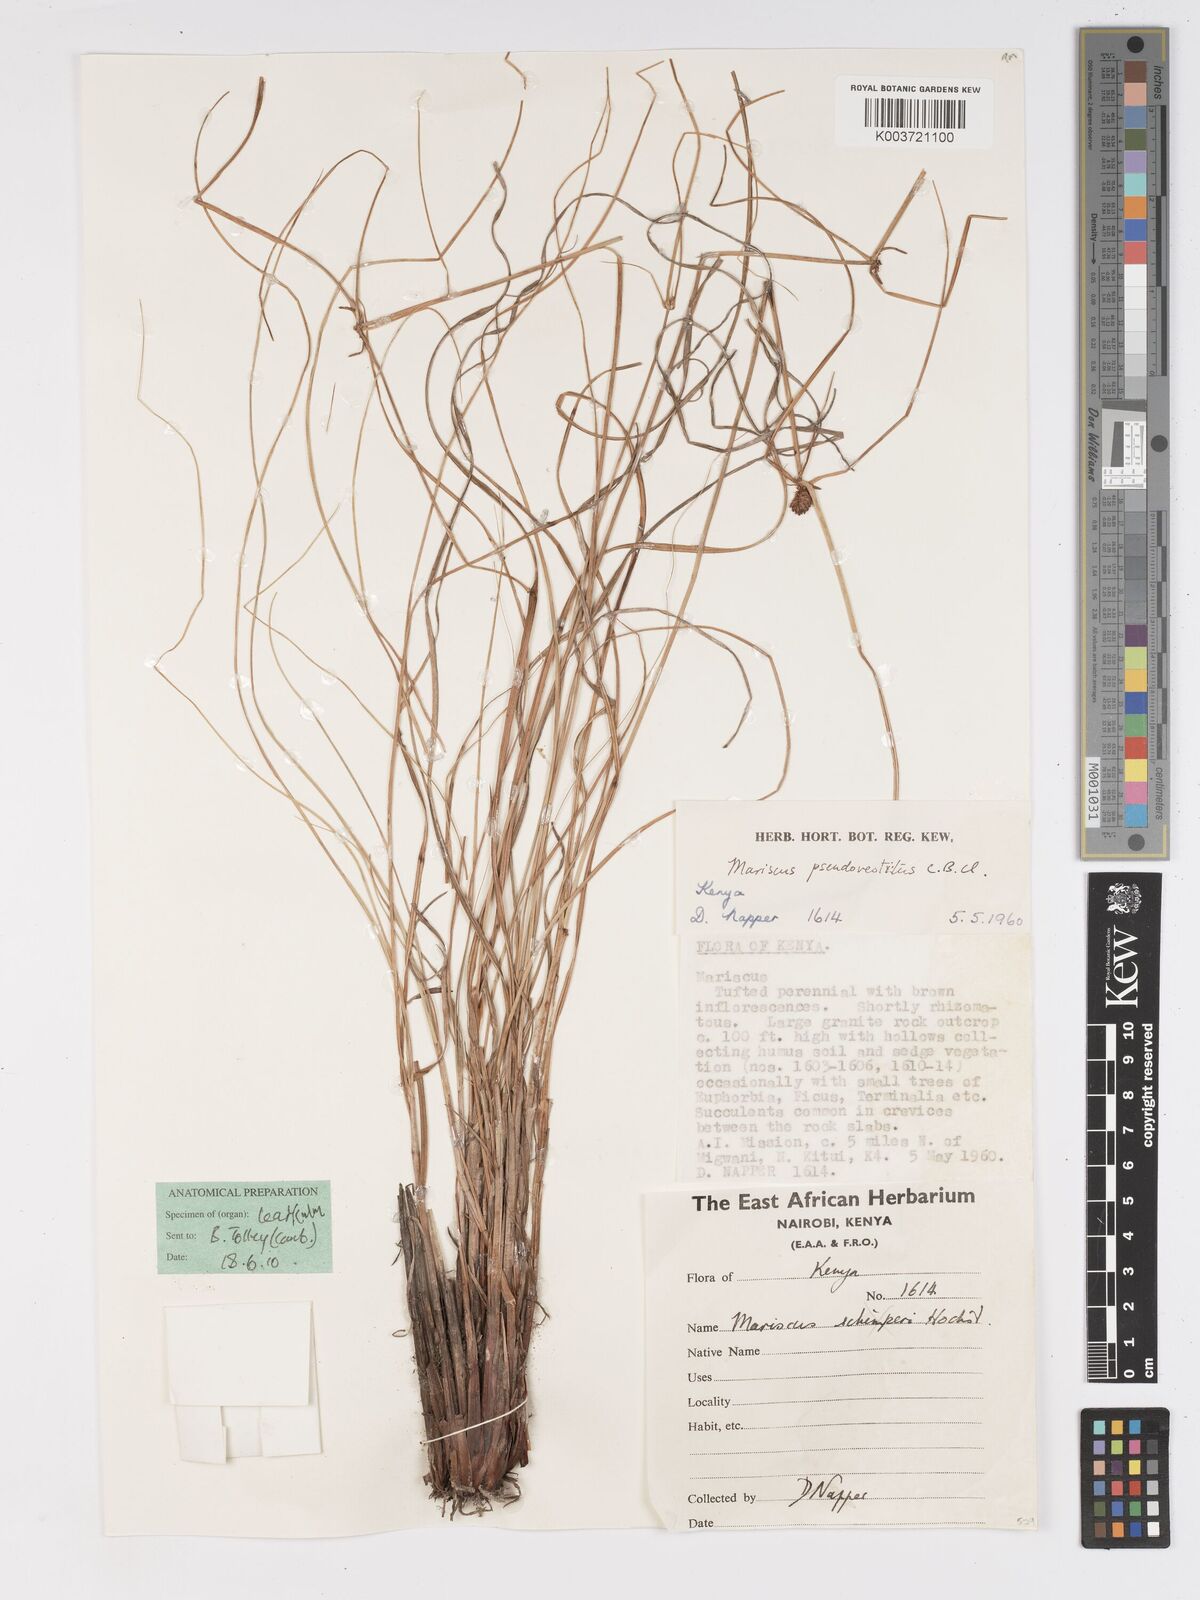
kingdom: Plantae
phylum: Tracheophyta
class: Liliopsida
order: Poales
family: Cyperaceae
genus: Cyperus
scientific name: Cyperus vestitus
